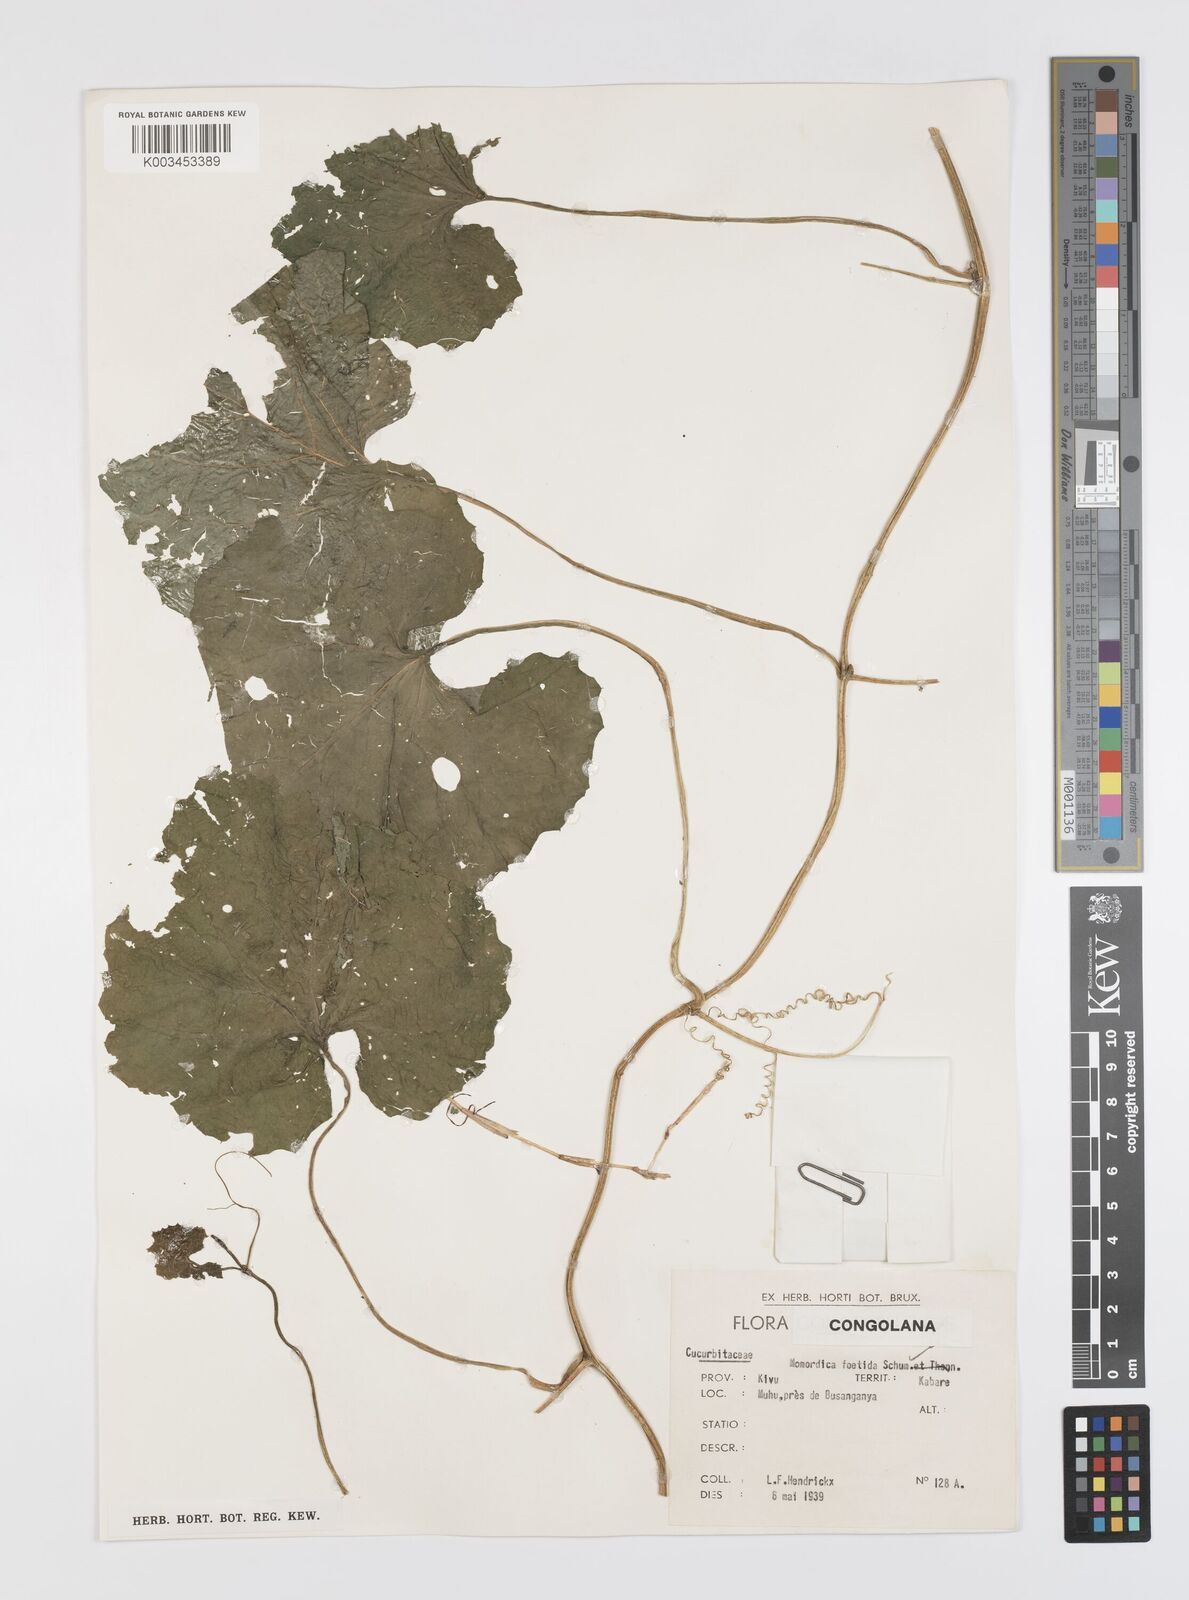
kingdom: Plantae
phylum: Tracheophyta
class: Magnoliopsida
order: Cucurbitales
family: Cucurbitaceae
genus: Momordica
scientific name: Momordica foetida
